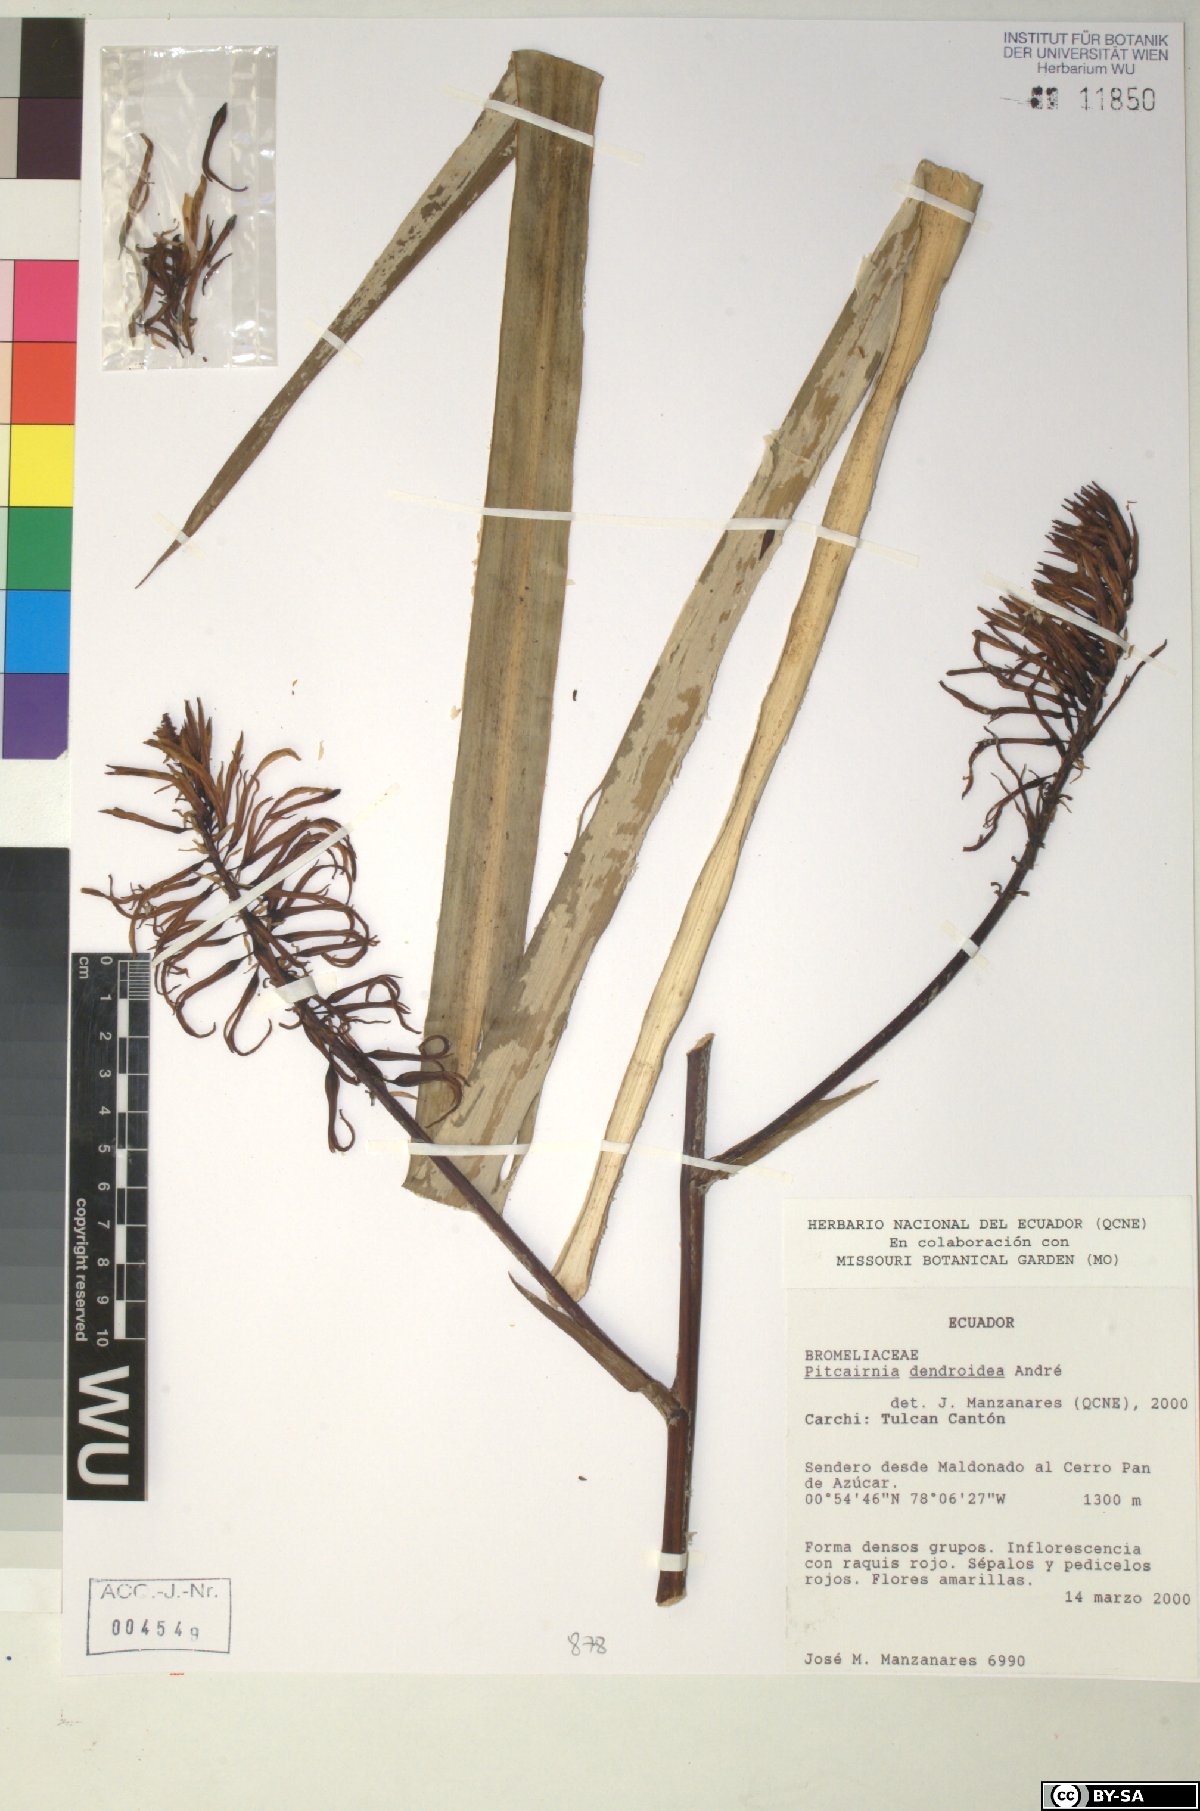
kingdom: Plantae
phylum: Tracheophyta
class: Liliopsida
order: Poales
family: Bromeliaceae
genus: Pitcairnia
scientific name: Pitcairnia dendroidea
